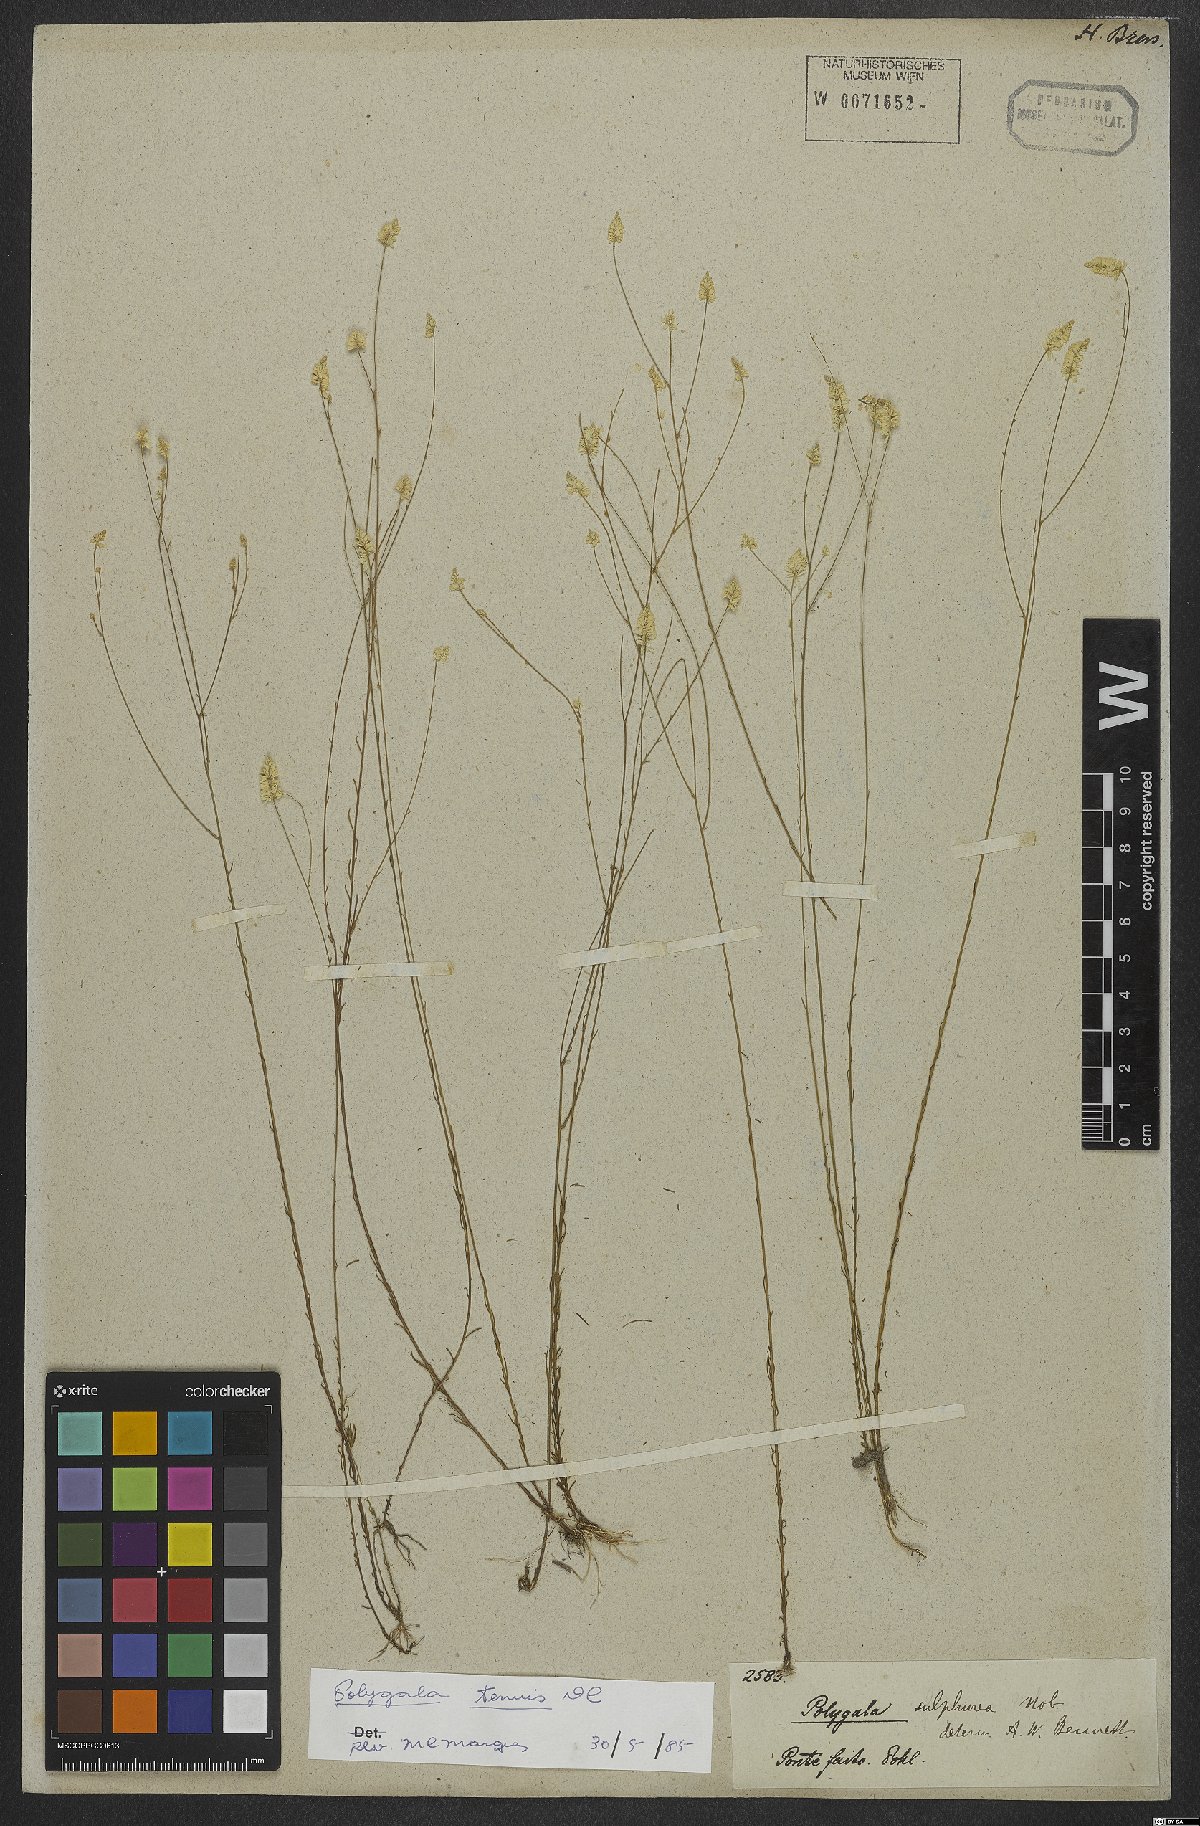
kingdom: Plantae
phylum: Tracheophyta
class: Magnoliopsida
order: Fabales
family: Polygalaceae
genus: Polygala
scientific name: Polygala rarifolia
